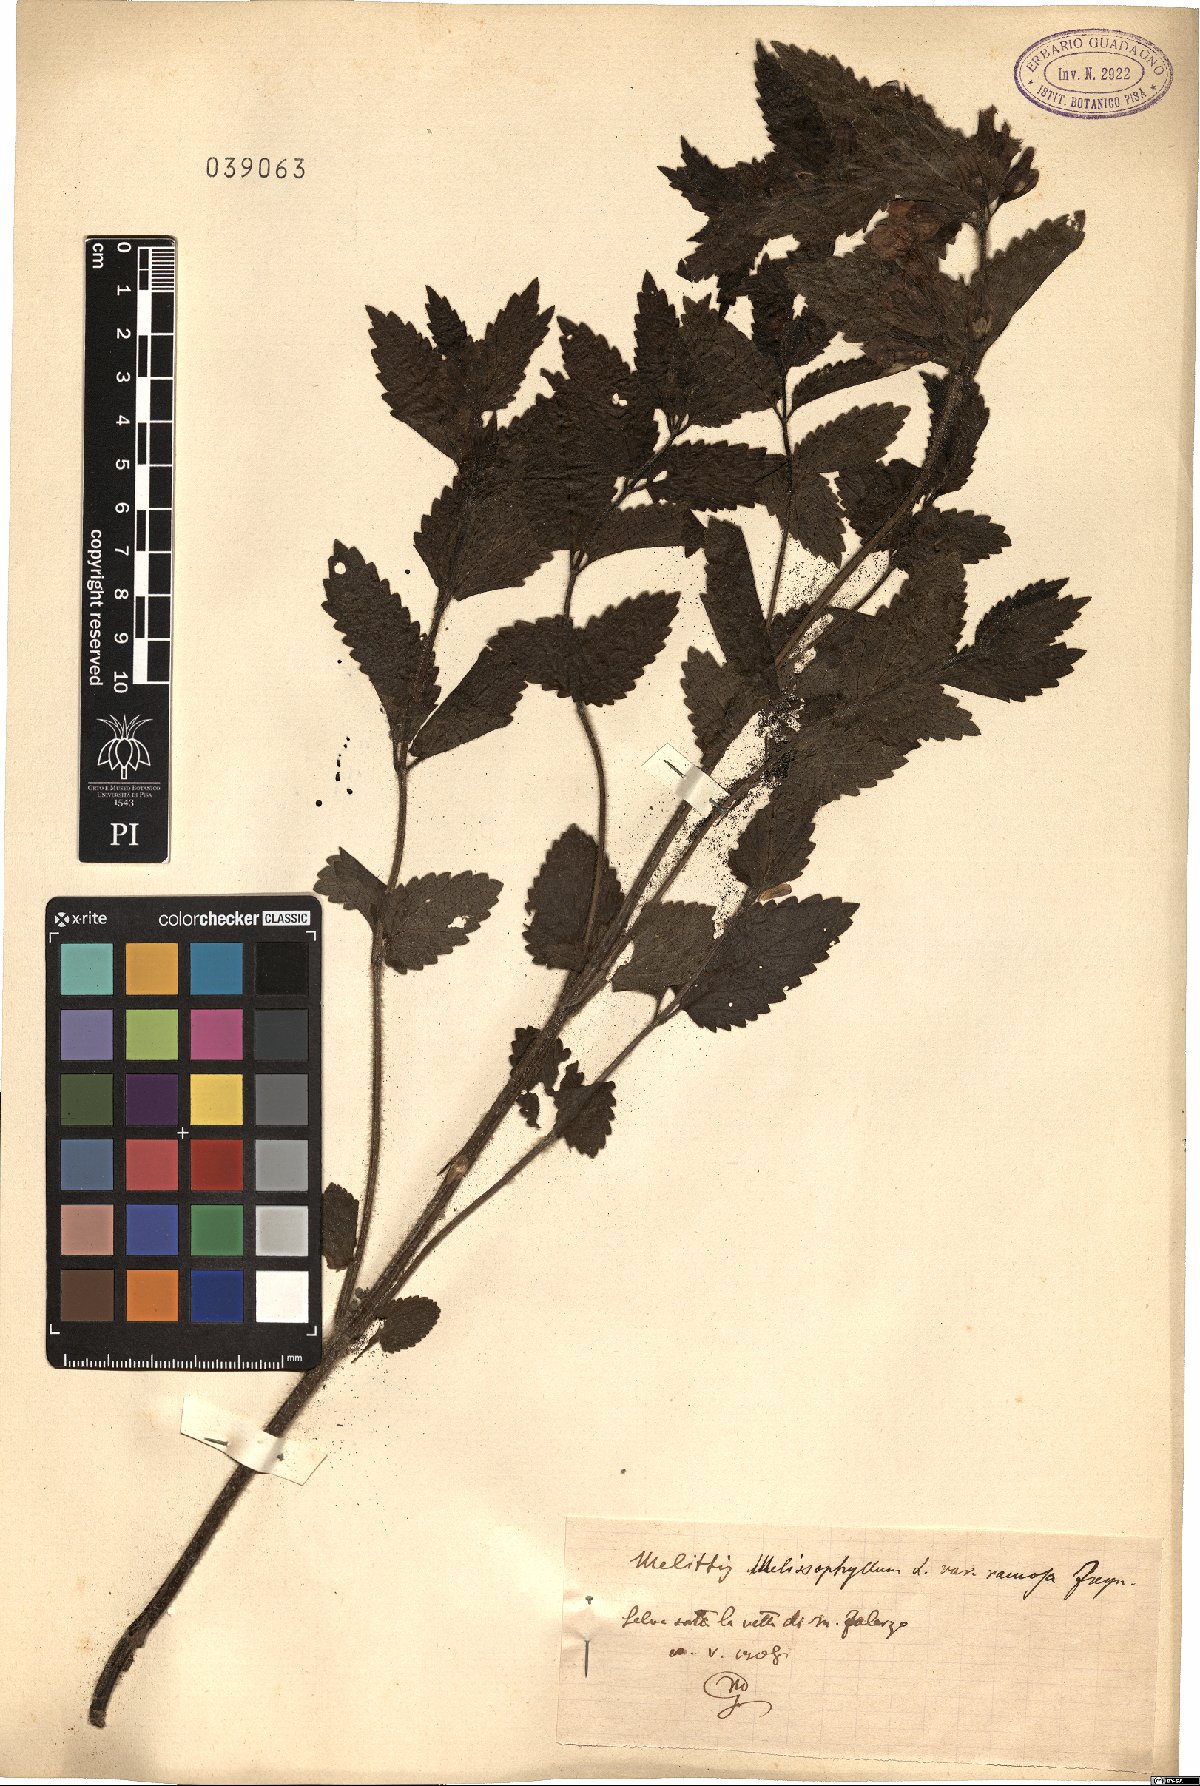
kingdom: Plantae
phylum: Tracheophyta
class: Magnoliopsida
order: Lamiales
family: Lamiaceae
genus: Melittis
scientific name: Melittis melissophyllum
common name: Bastard balm
